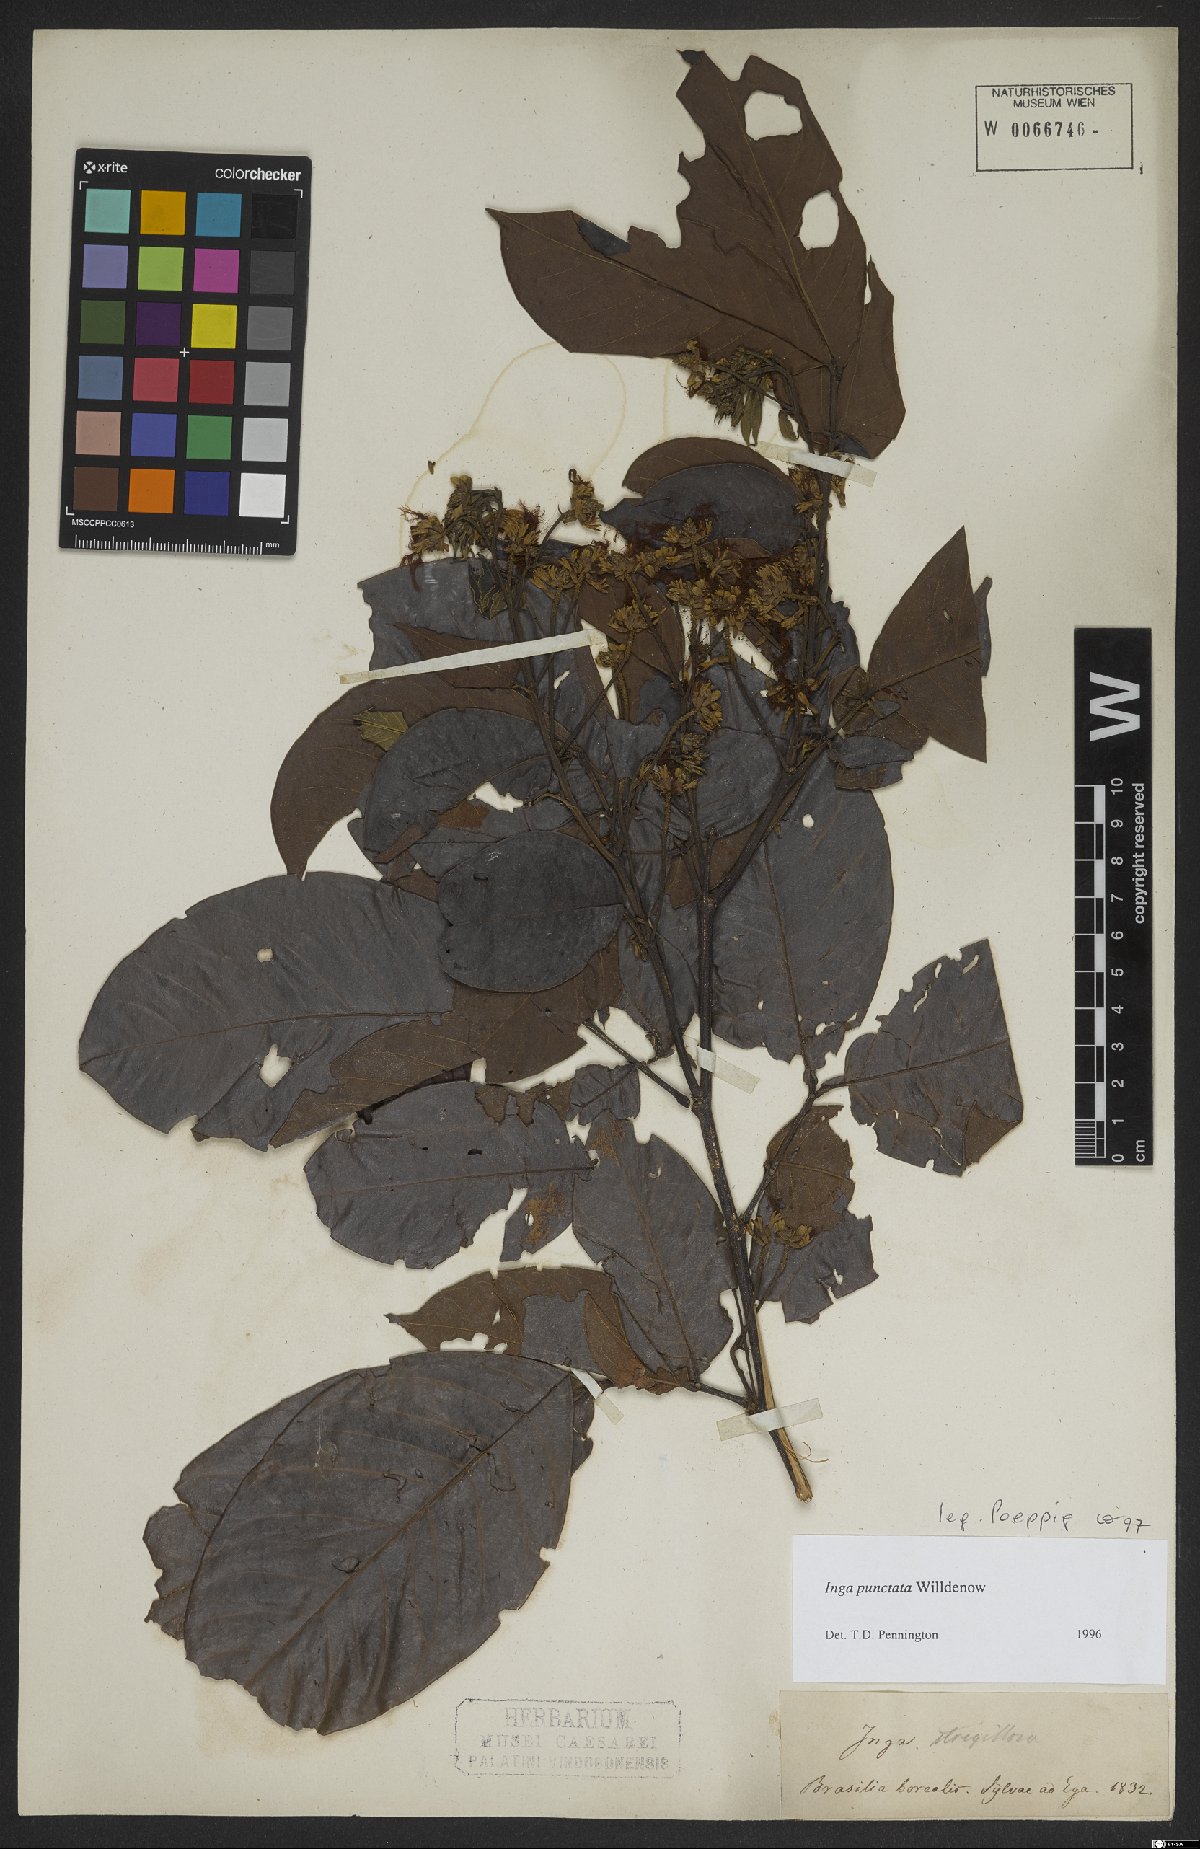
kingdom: Plantae
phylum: Tracheophyta
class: Magnoliopsida
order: Fabales
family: Fabaceae
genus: Inga
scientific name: Inga punctata
